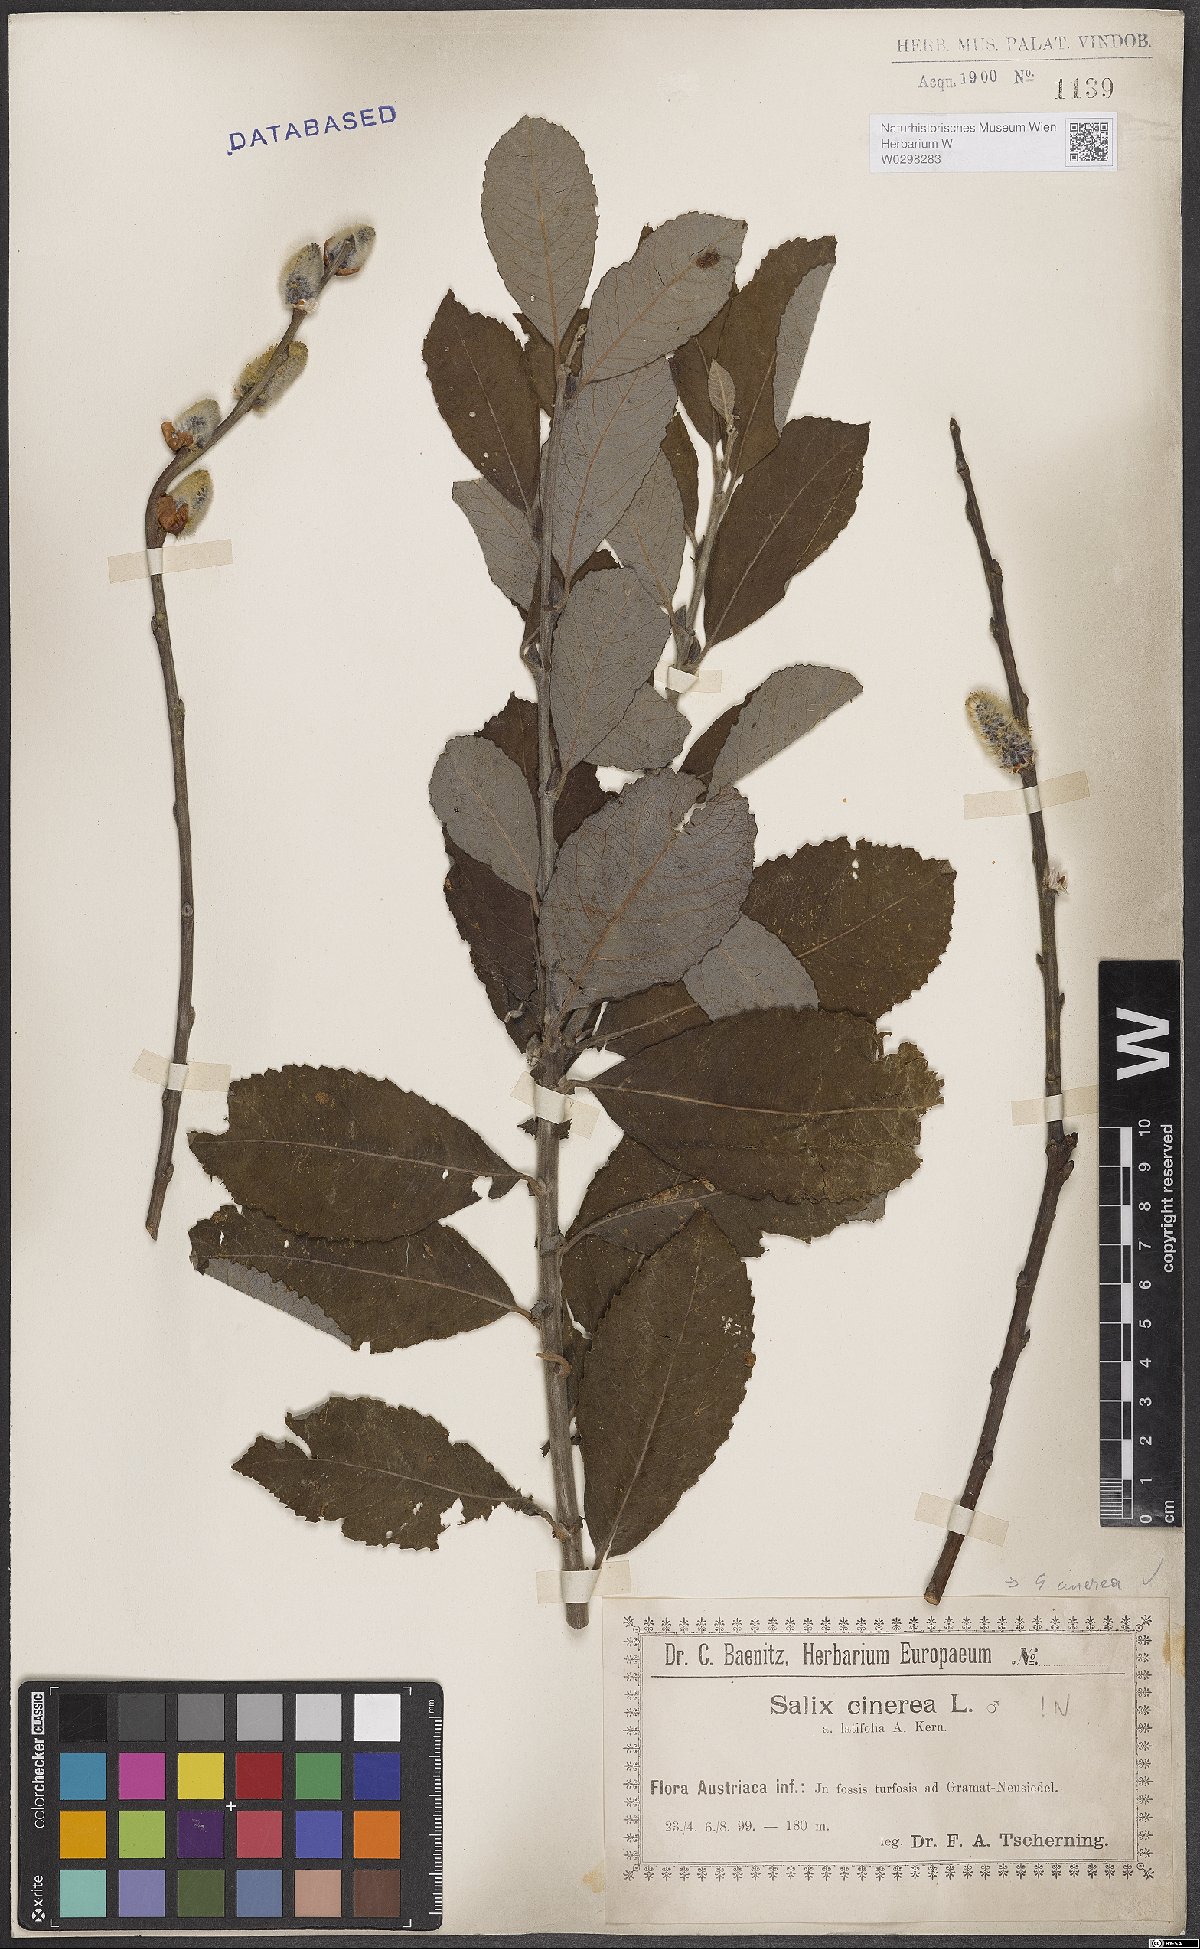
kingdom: Plantae
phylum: Tracheophyta
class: Magnoliopsida
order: Malpighiales
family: Salicaceae
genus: Salix
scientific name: Salix cinerea
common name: Common sallow
